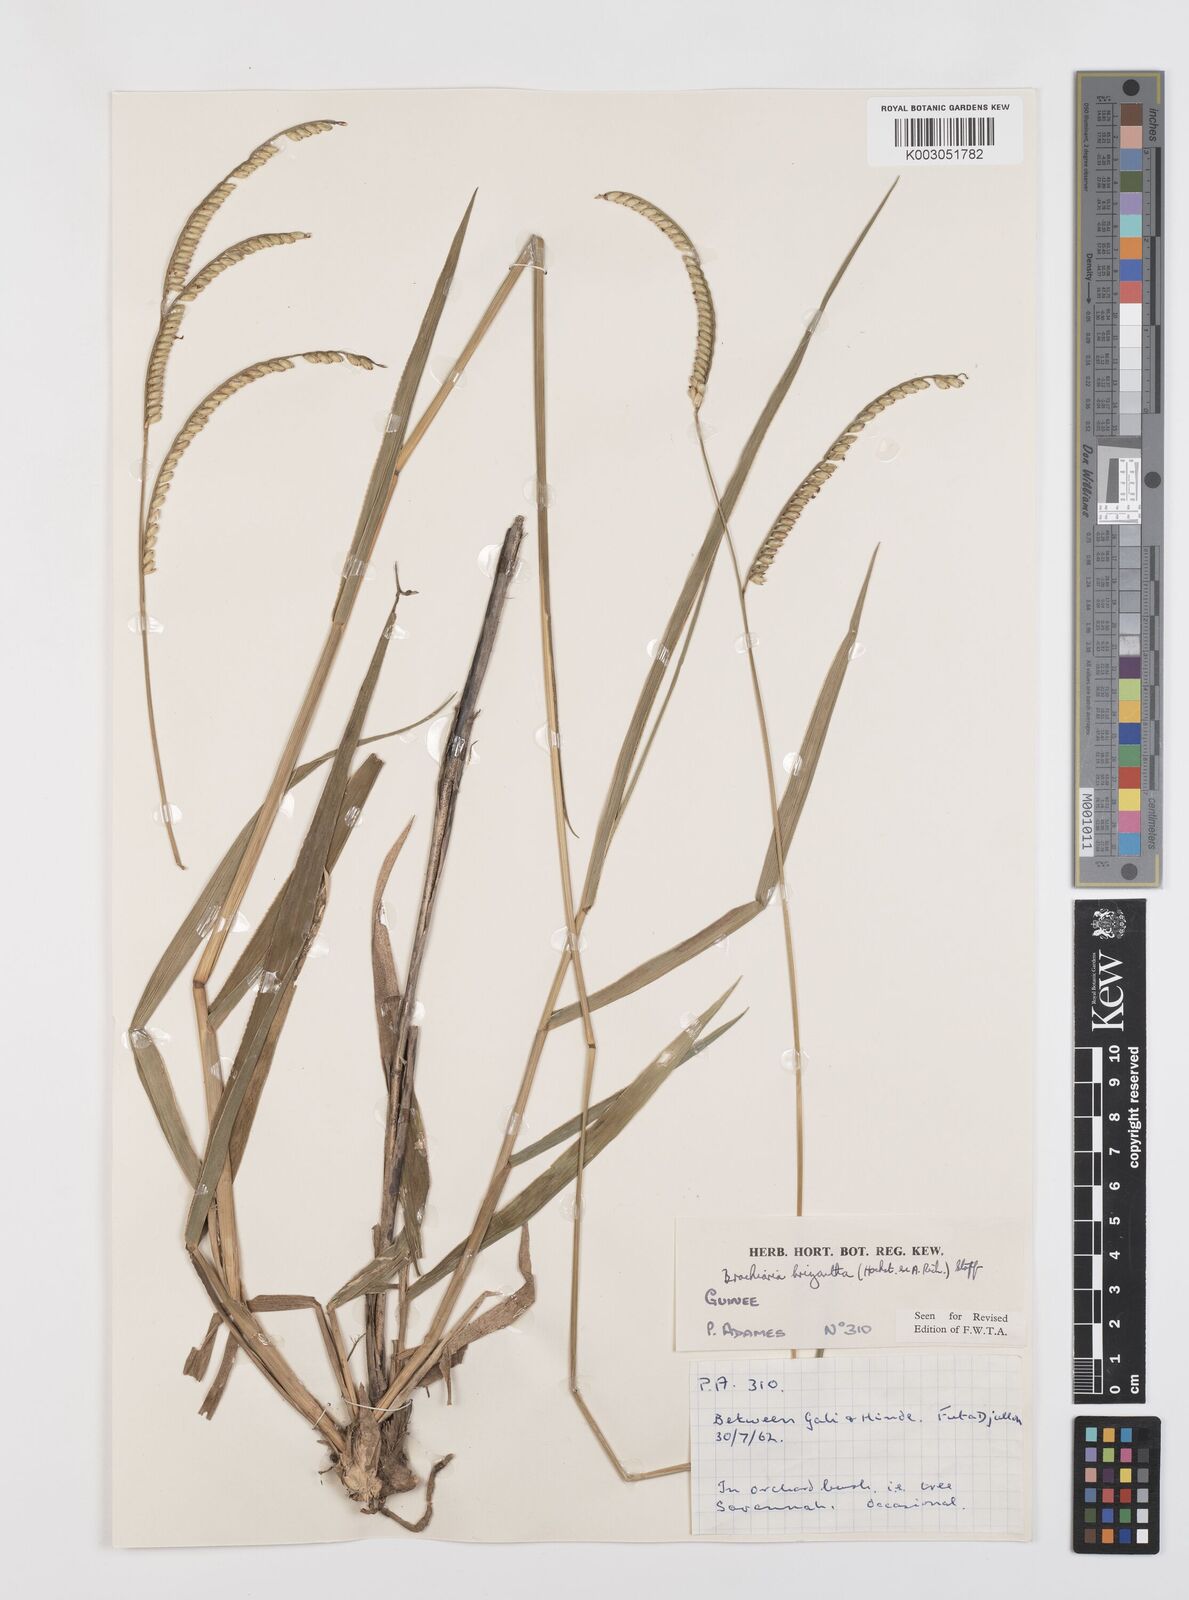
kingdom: Plantae
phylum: Tracheophyta
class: Liliopsida
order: Poales
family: Poaceae
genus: Urochloa
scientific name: Urochloa brizantha
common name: Palisade signalgrass
